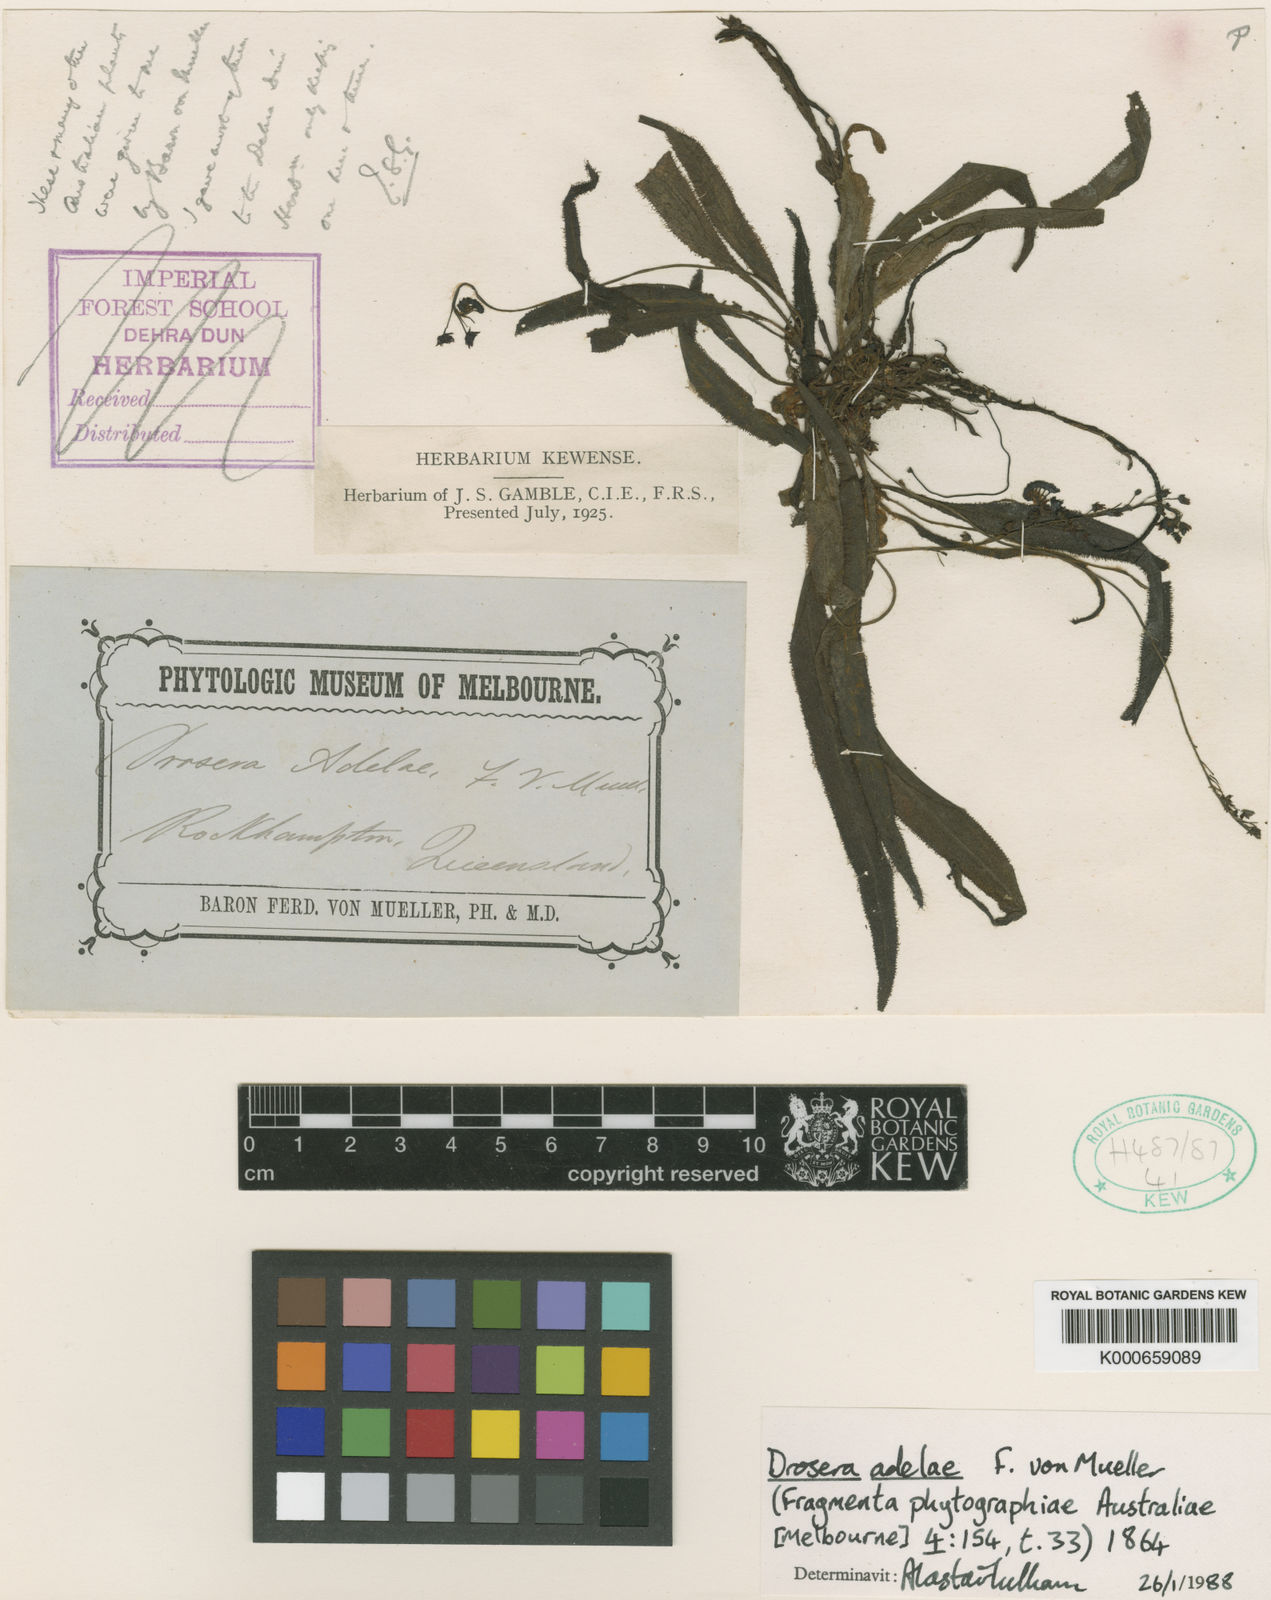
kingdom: Plantae
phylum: Tracheophyta
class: Magnoliopsida
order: Caryophyllales
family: Droseraceae
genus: Drosera
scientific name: Drosera adelae
